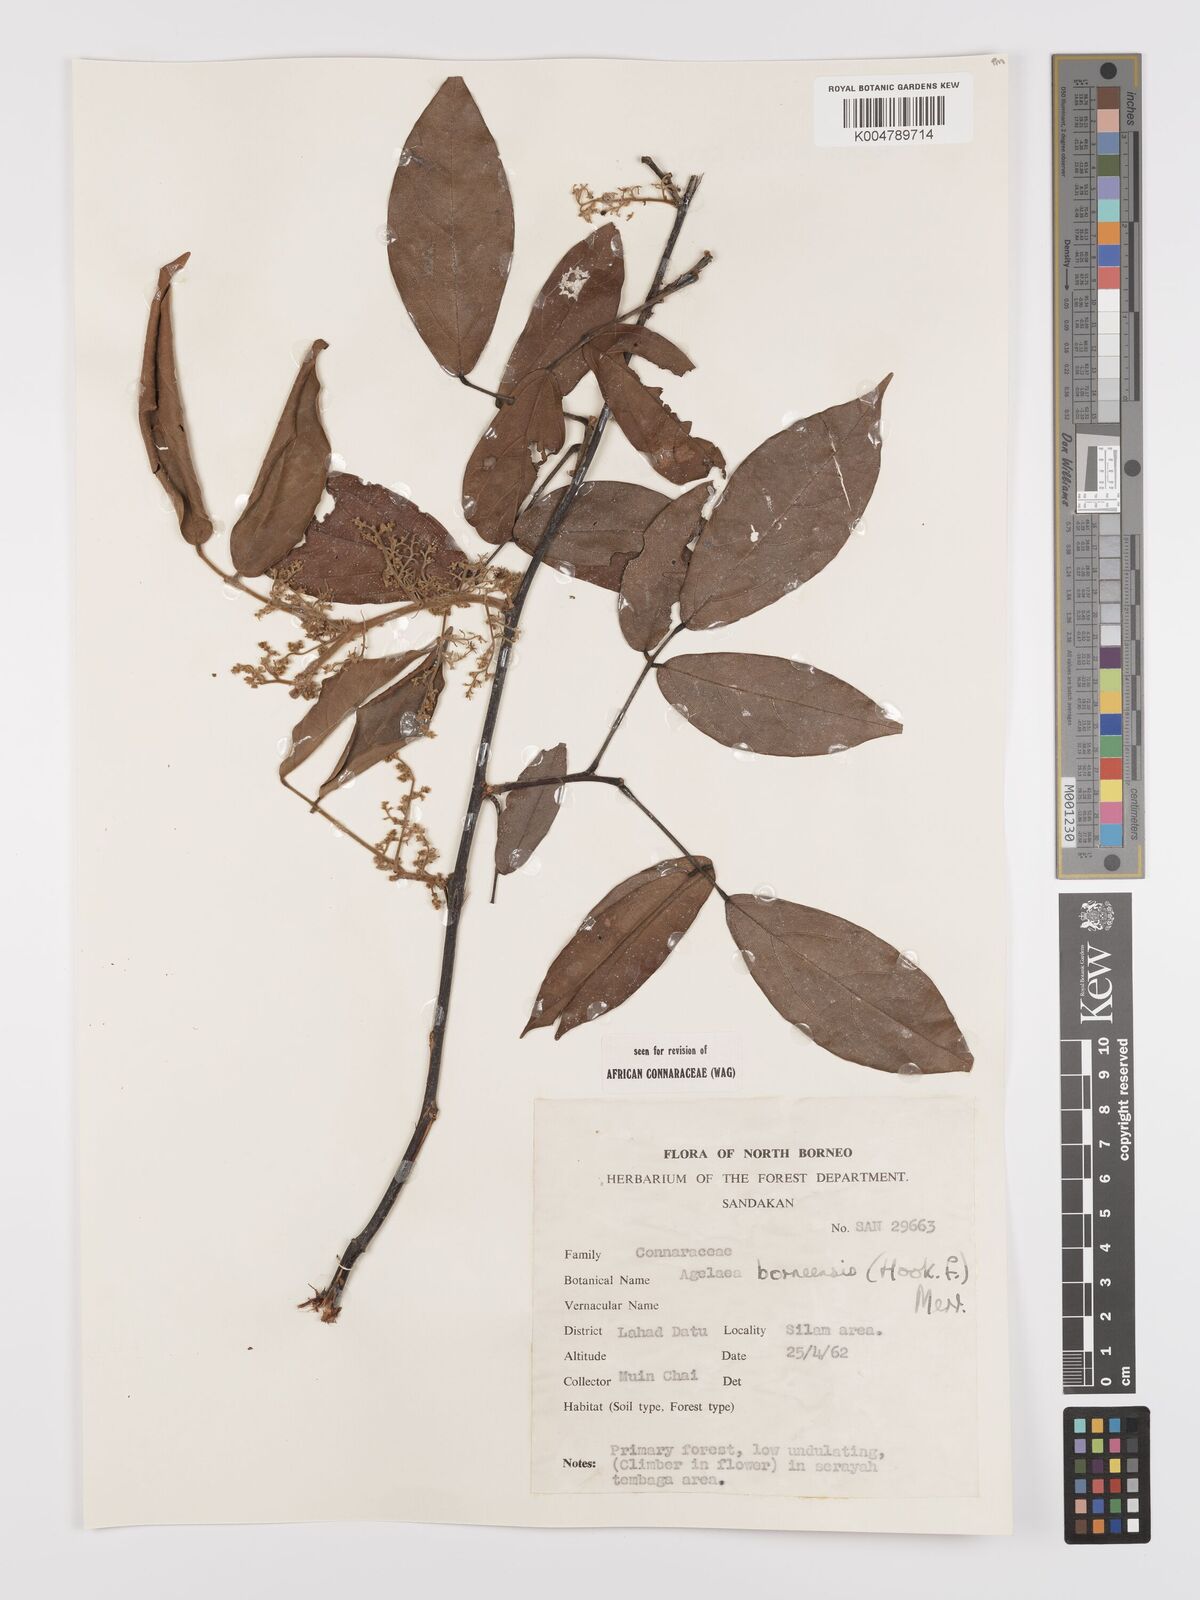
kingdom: Plantae
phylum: Tracheophyta
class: Magnoliopsida
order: Oxalidales
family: Connaraceae
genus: Agelaea
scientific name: Agelaea borneensis
